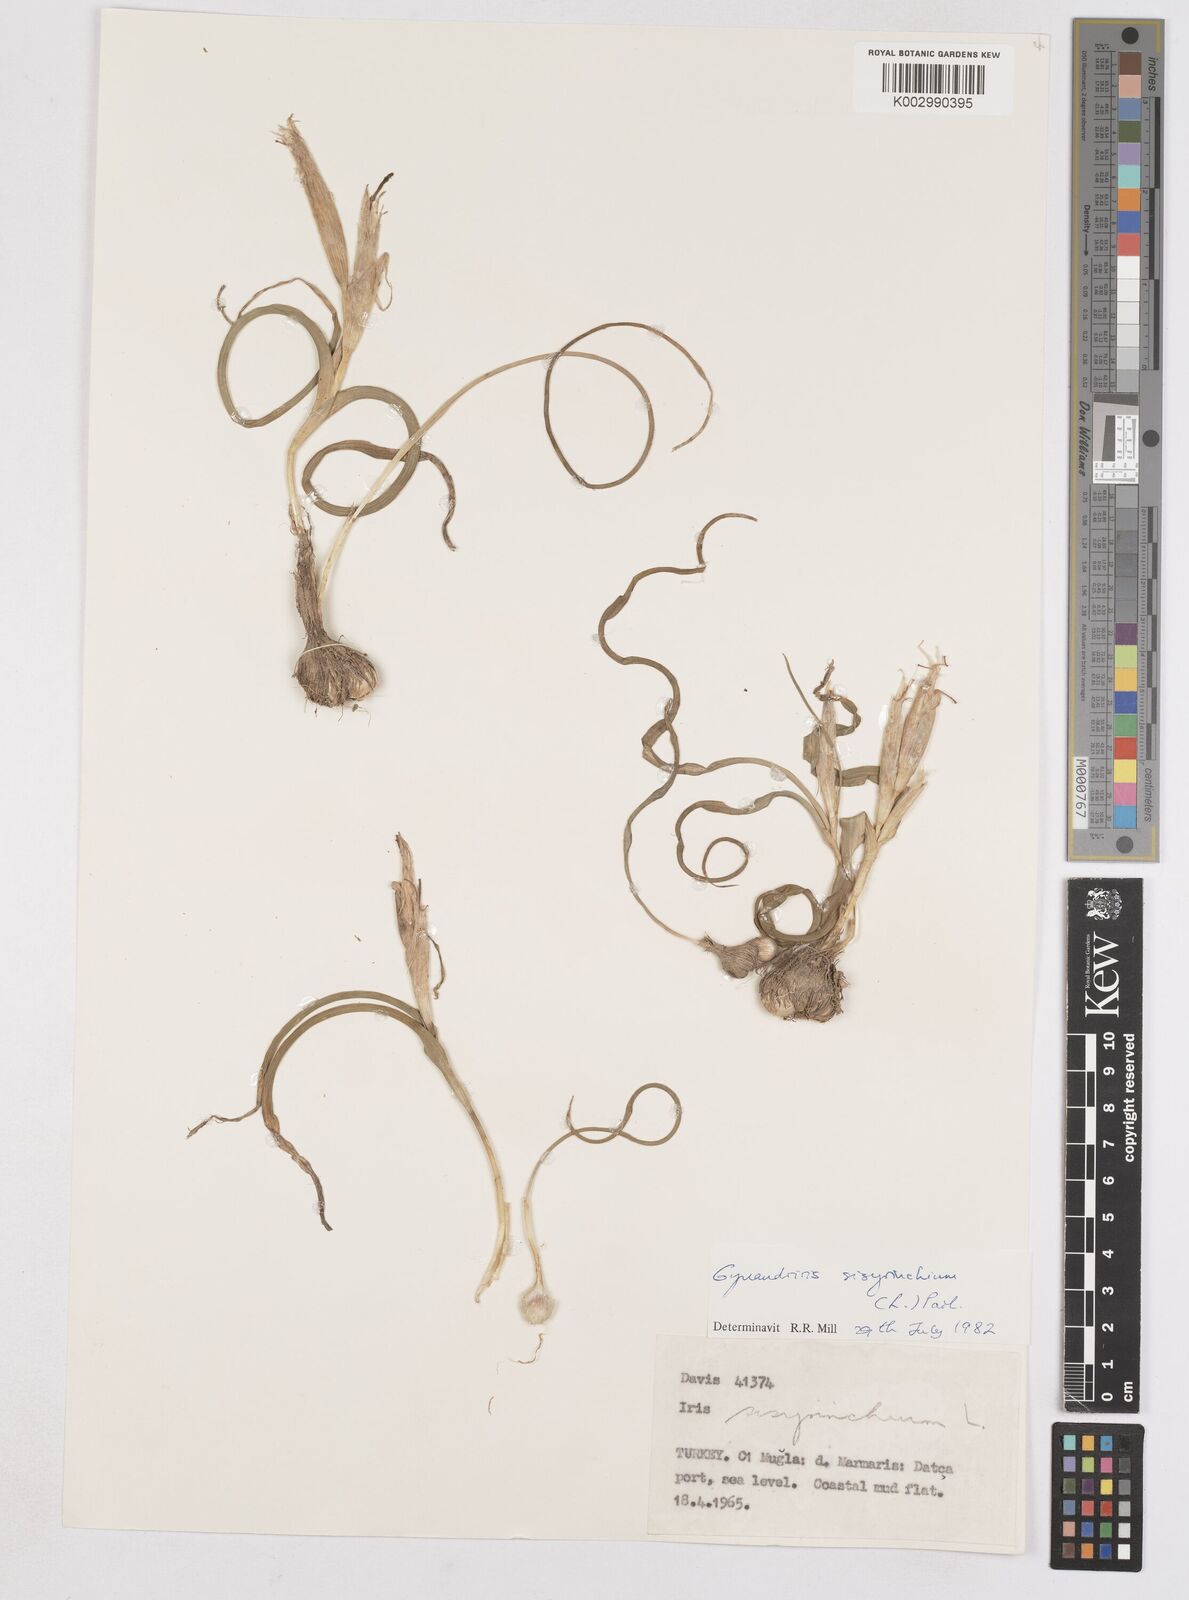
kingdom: Plantae
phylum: Tracheophyta
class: Liliopsida
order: Asparagales
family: Iridaceae
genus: Moraea
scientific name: Moraea sisyrinchium
